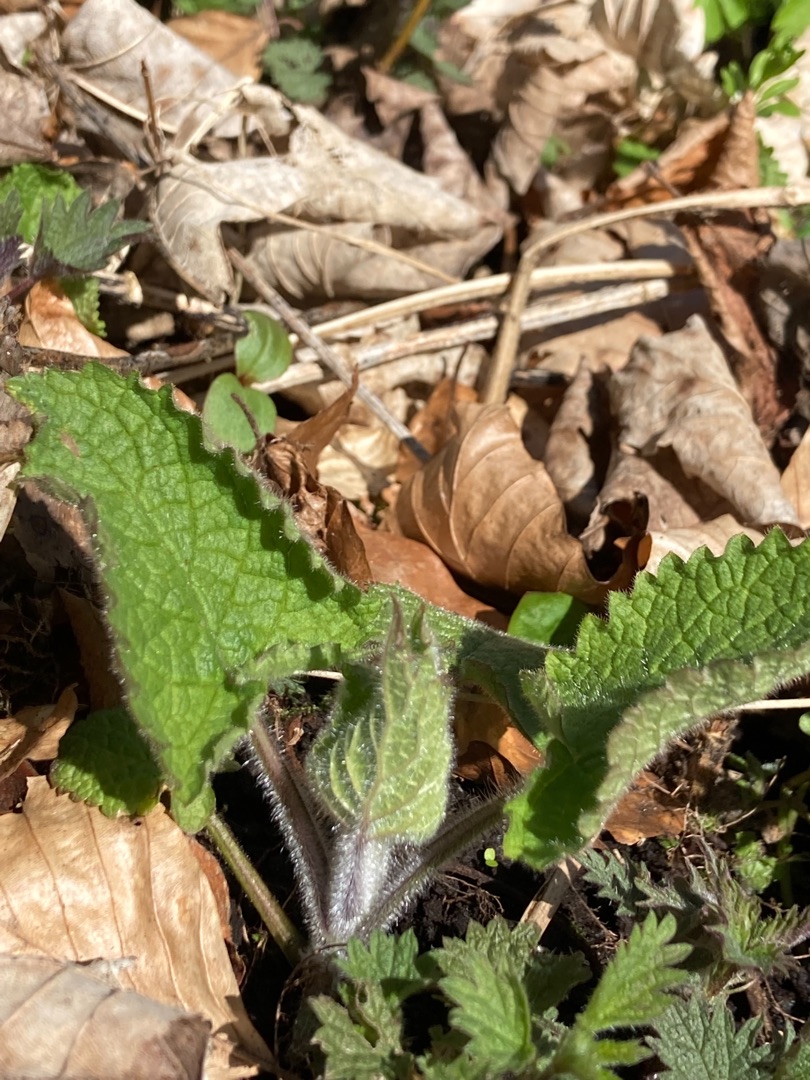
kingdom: Plantae
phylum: Tracheophyta
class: Magnoliopsida
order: Lamiales
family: Lamiaceae
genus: Stachys
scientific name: Stachys sylvatica
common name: Skov-galtetand
